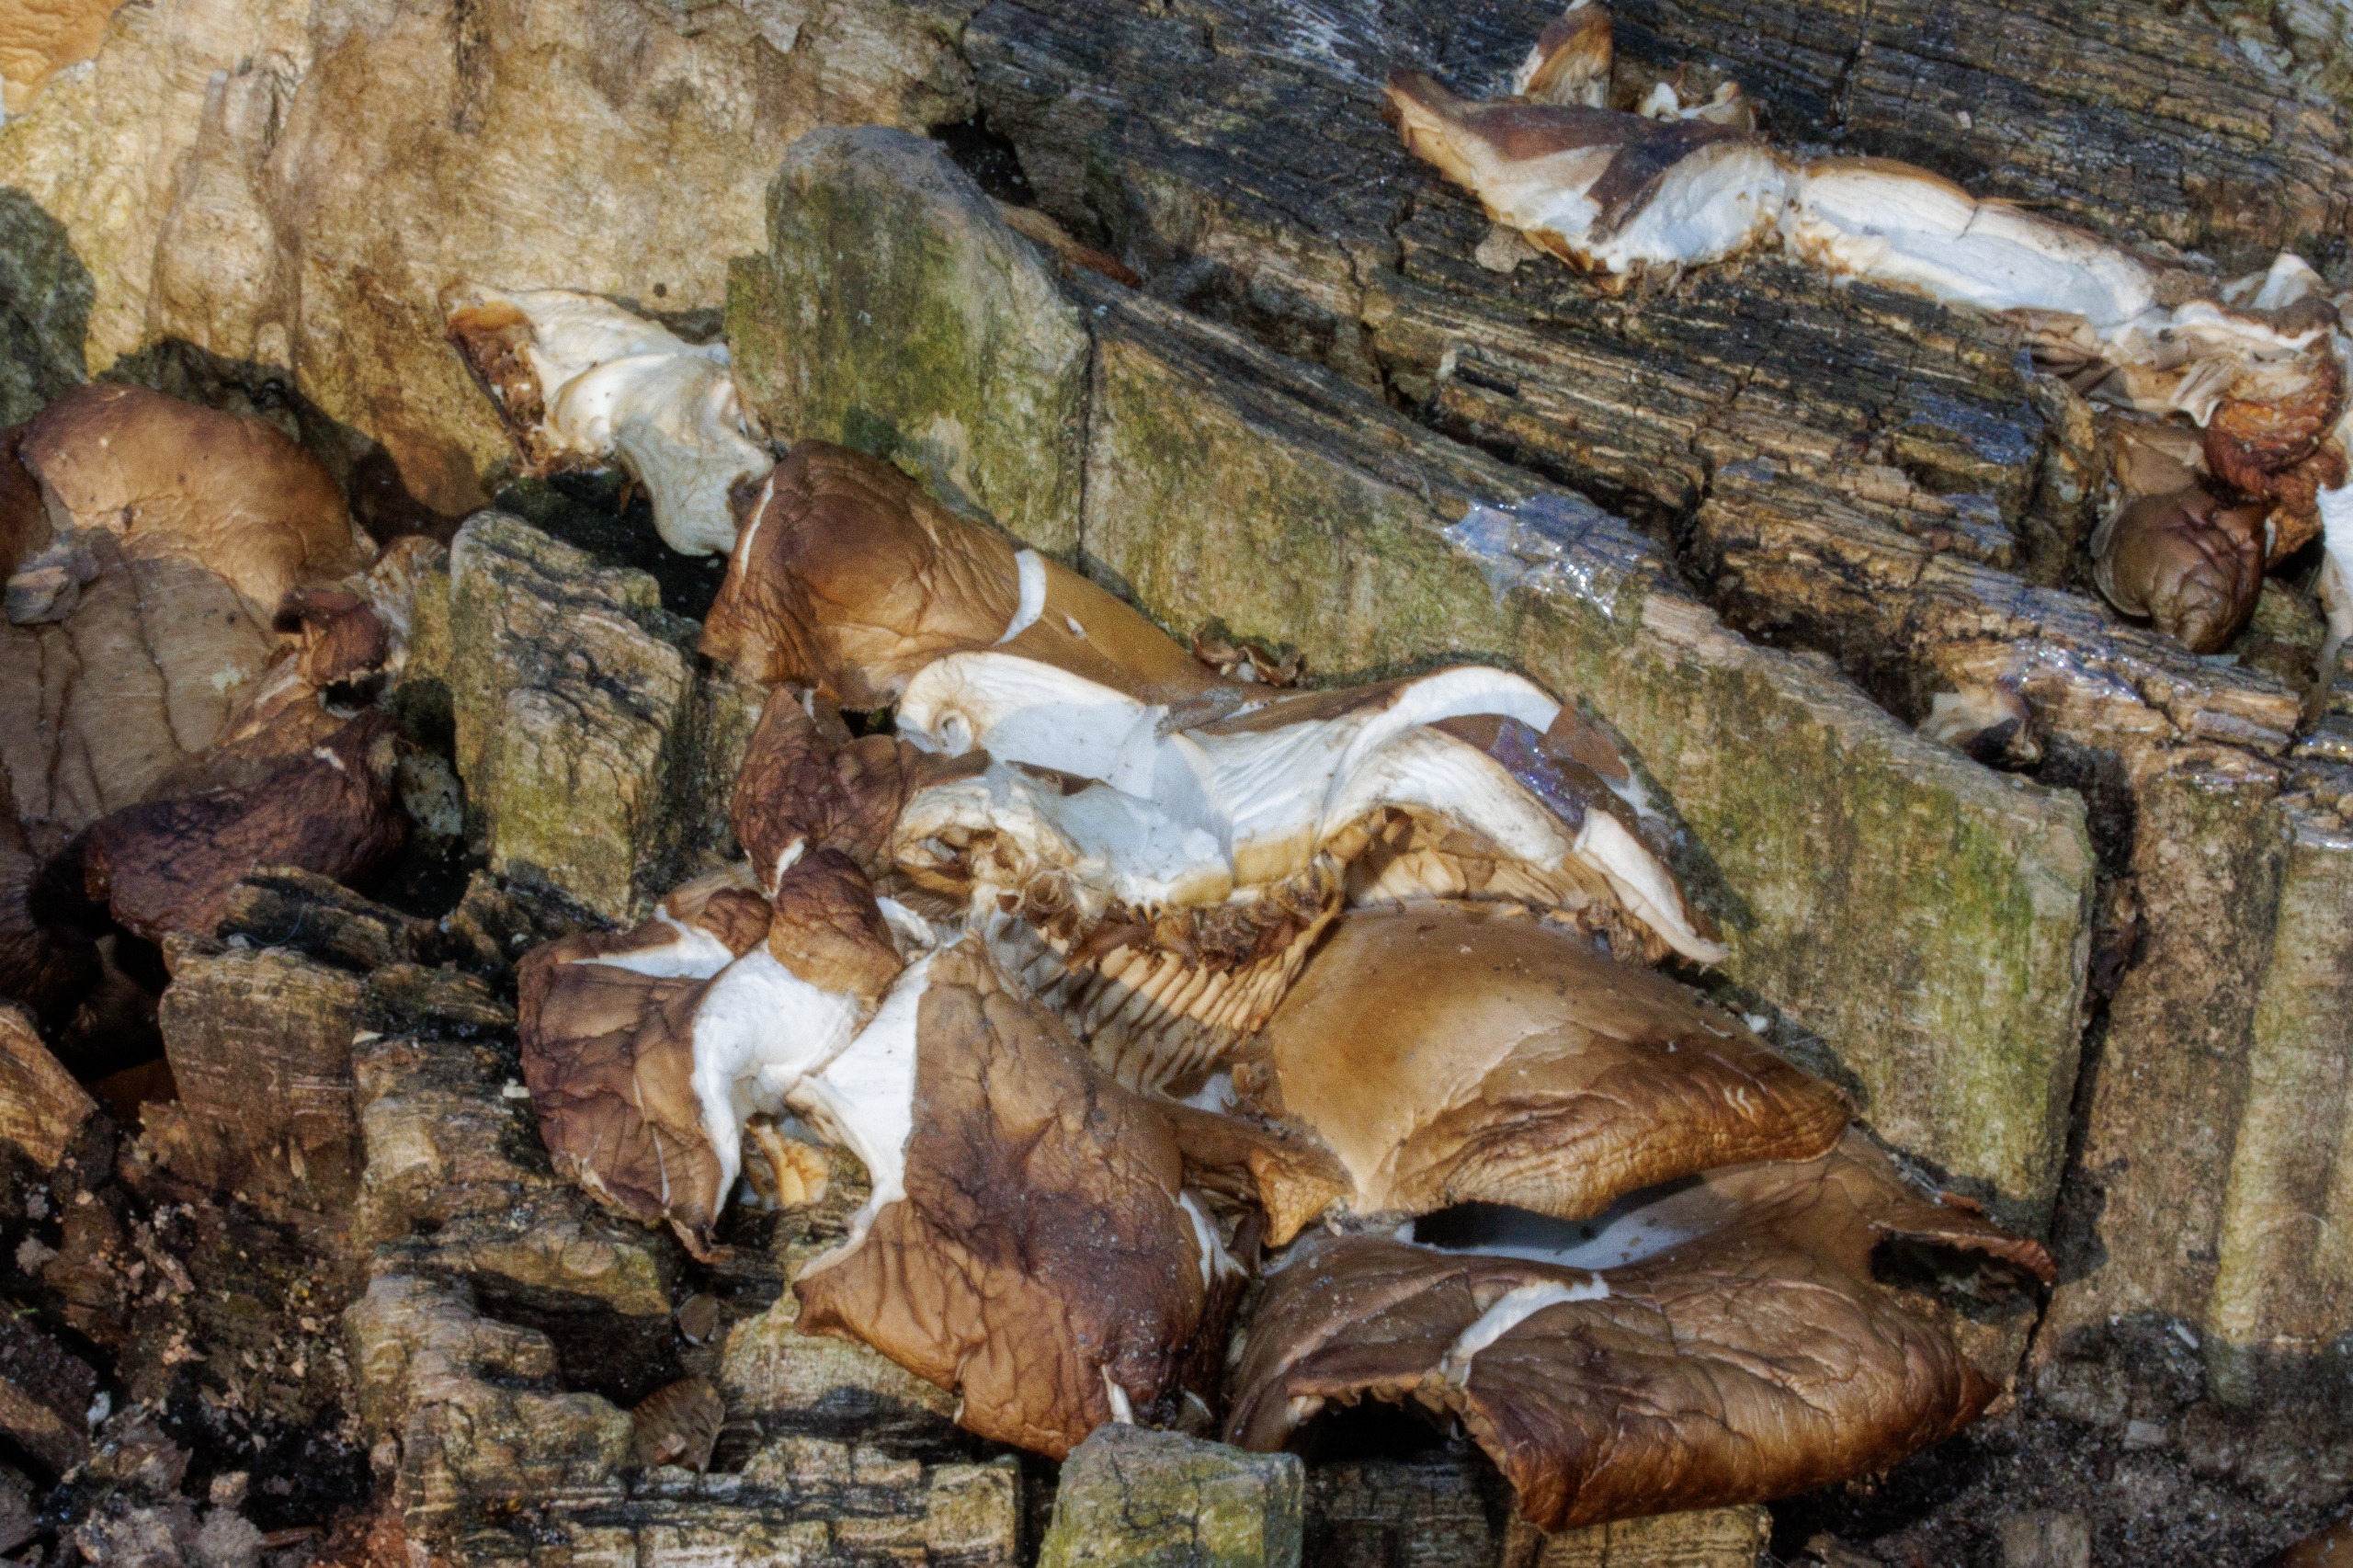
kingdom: Fungi
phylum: Basidiomycota
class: Agaricomycetes
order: Agaricales
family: Pleurotaceae
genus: Pleurotus
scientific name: Pleurotus ostreatus
